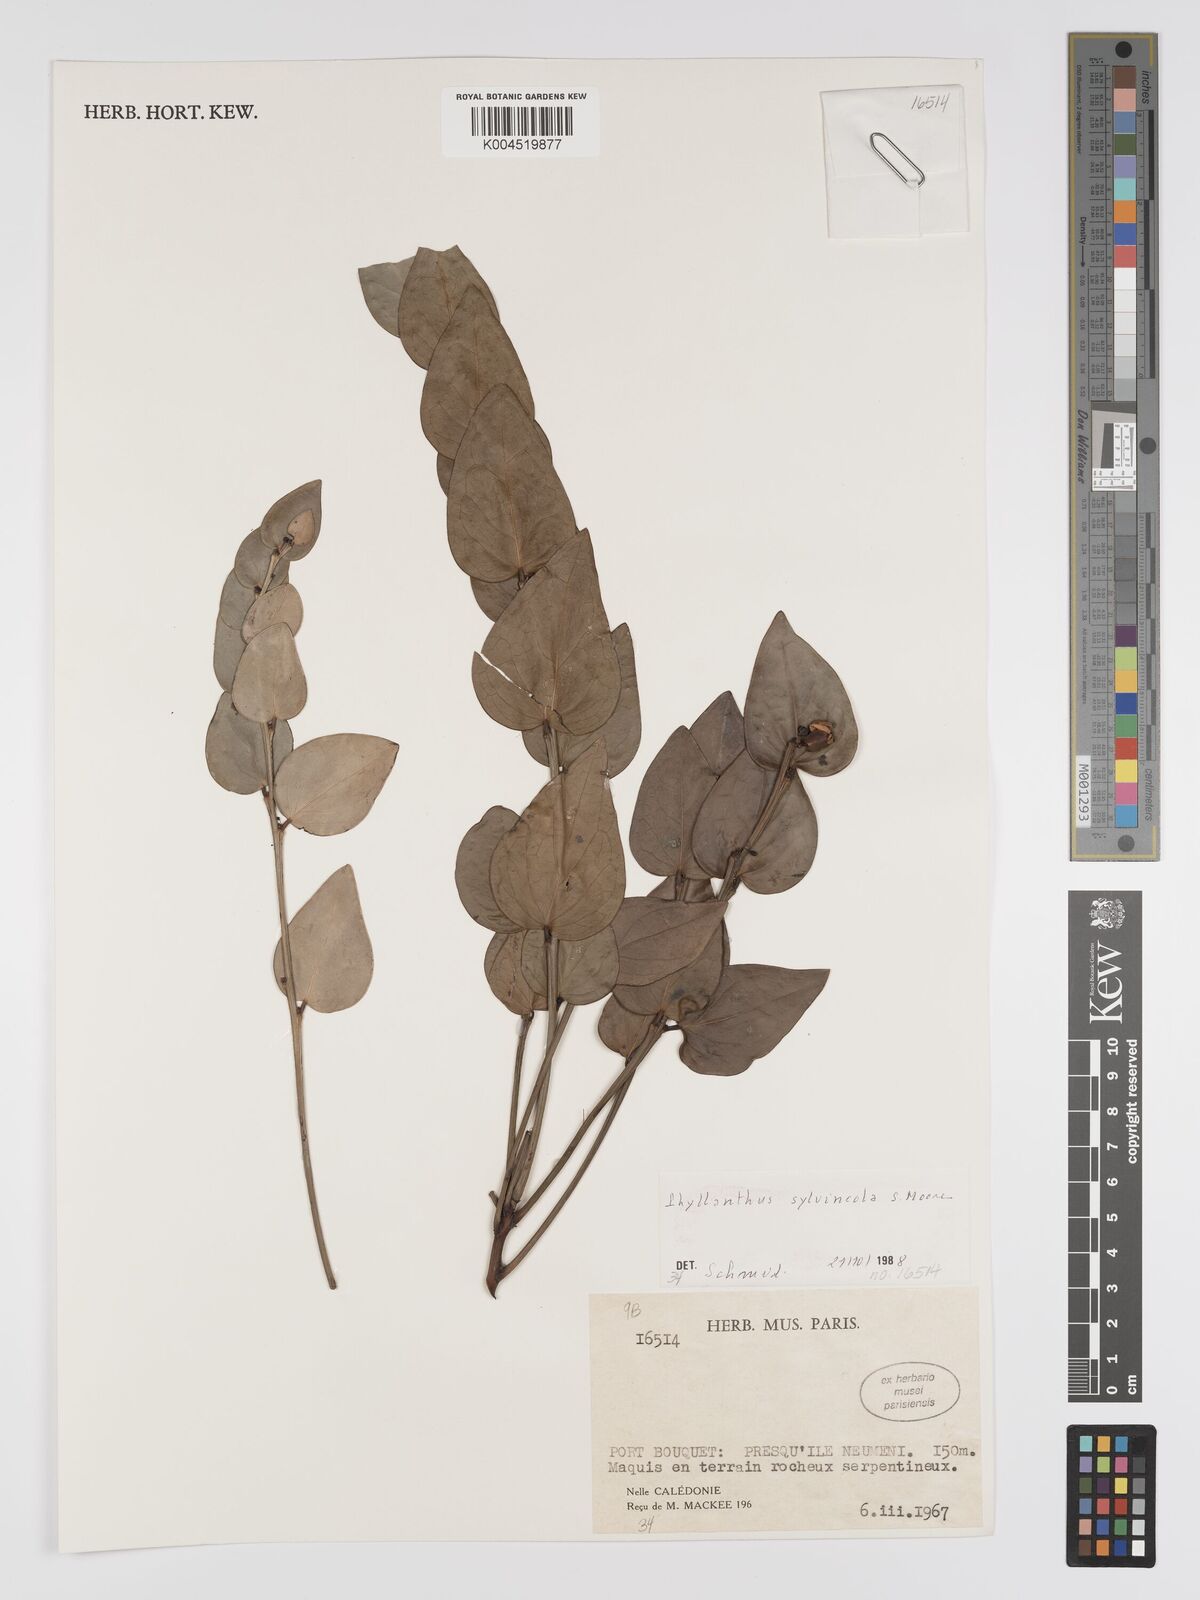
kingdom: Plantae
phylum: Tracheophyta
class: Magnoliopsida
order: Malpighiales
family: Phyllanthaceae
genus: Phyllanthus
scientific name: Phyllanthus sylvincola
